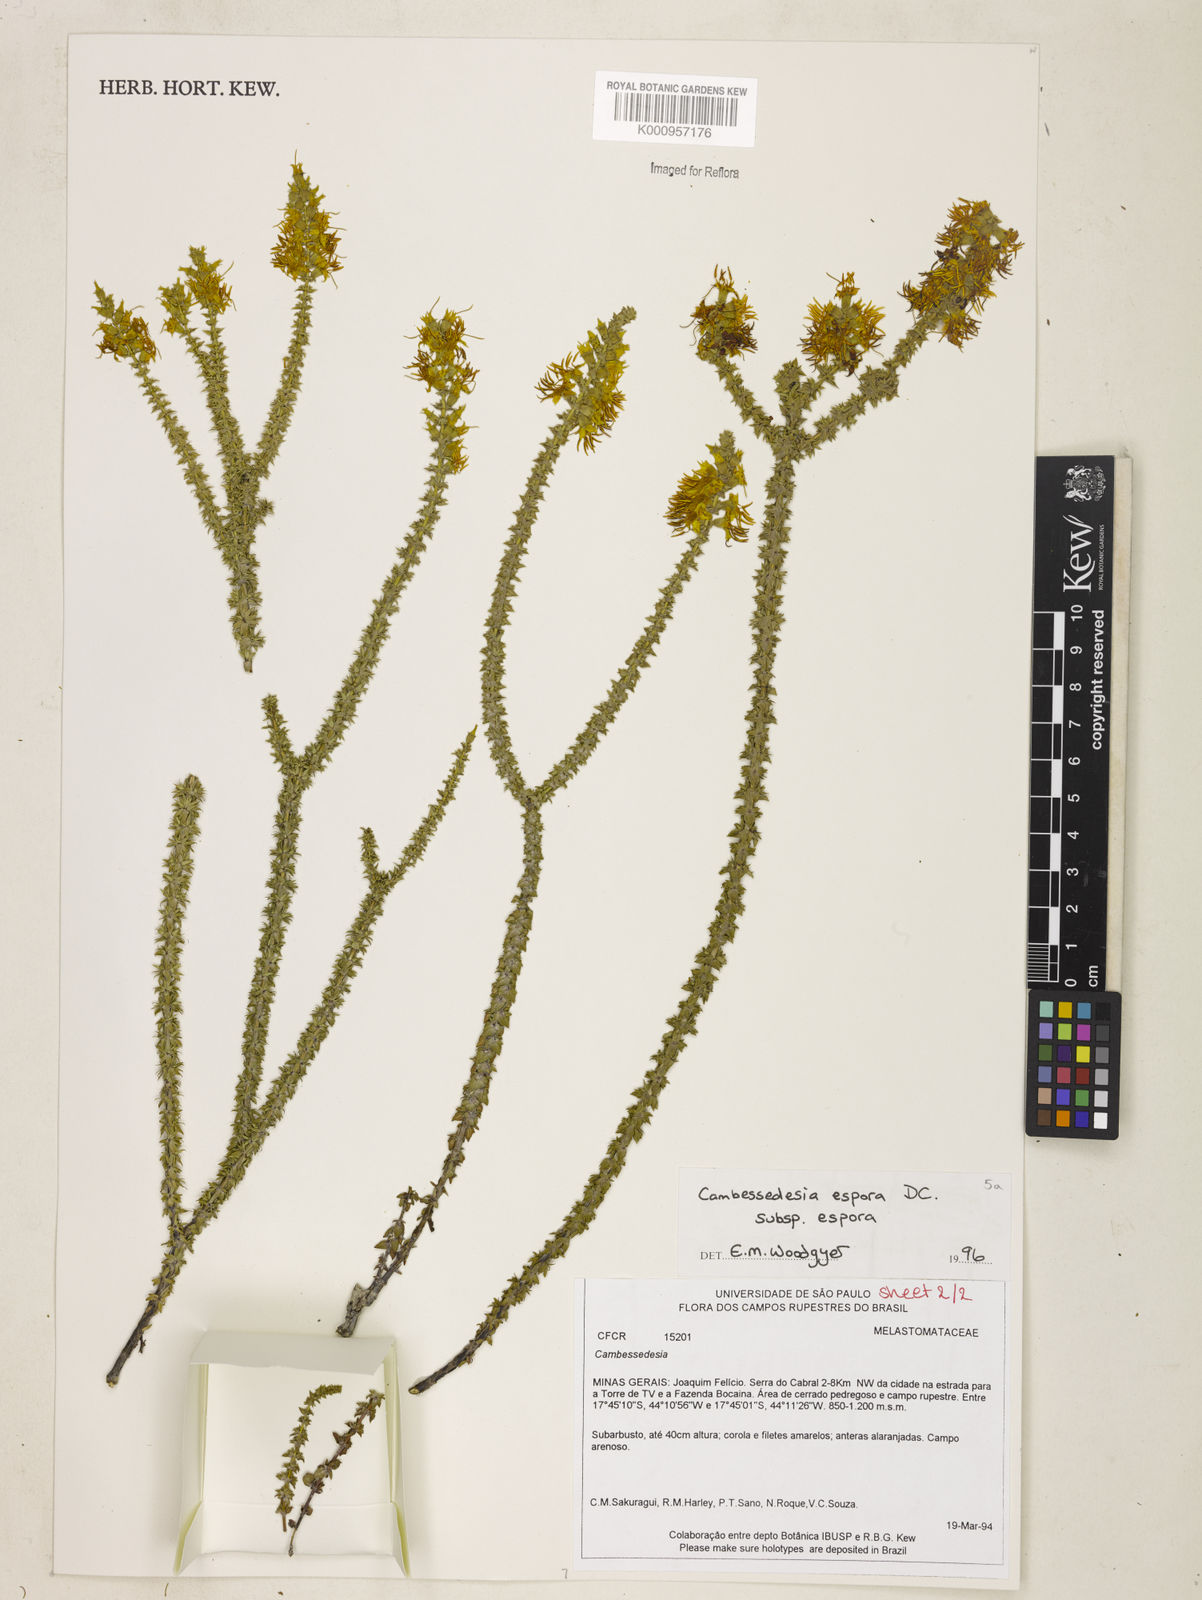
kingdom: Plantae
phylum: Tracheophyta
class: Magnoliopsida
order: Myrtales
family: Melastomataceae
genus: Cambessedesia
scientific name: Cambessedesia espora
